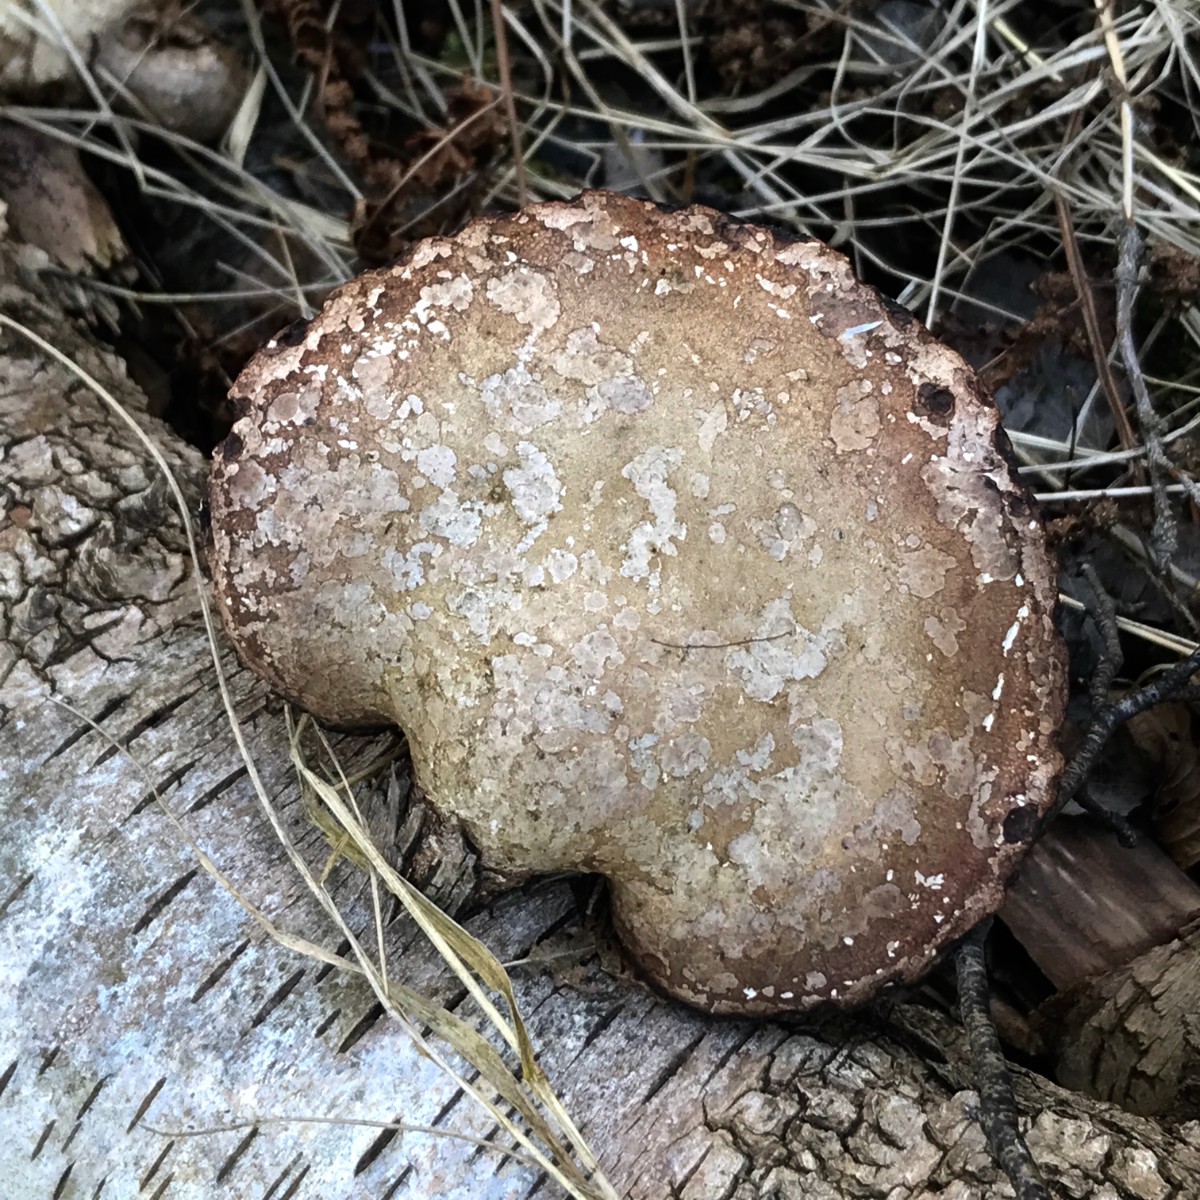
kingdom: Fungi
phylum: Basidiomycota
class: Agaricomycetes
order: Polyporales
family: Fomitopsidaceae
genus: Fomitopsis
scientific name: Fomitopsis betulina
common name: birkeporesvamp
